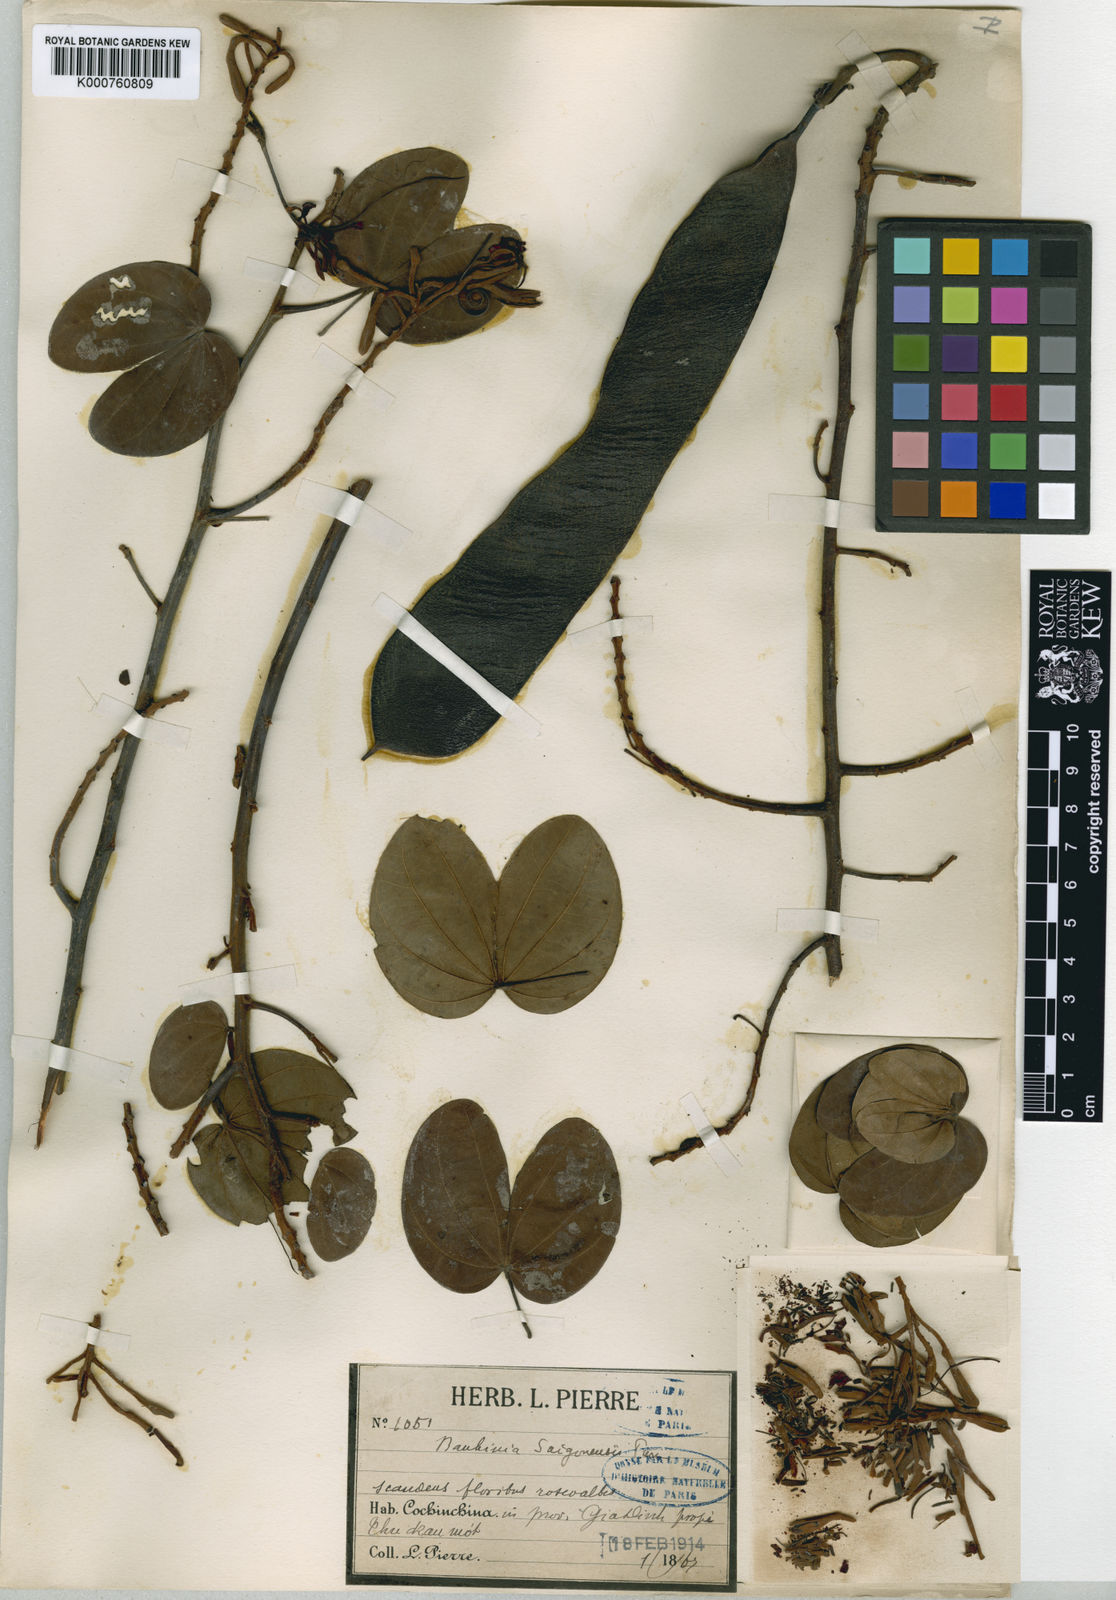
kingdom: Plantae
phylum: Tracheophyta
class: Magnoliopsida
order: Fabales
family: Fabaceae
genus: Phanera
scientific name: Phanera saigonensis
